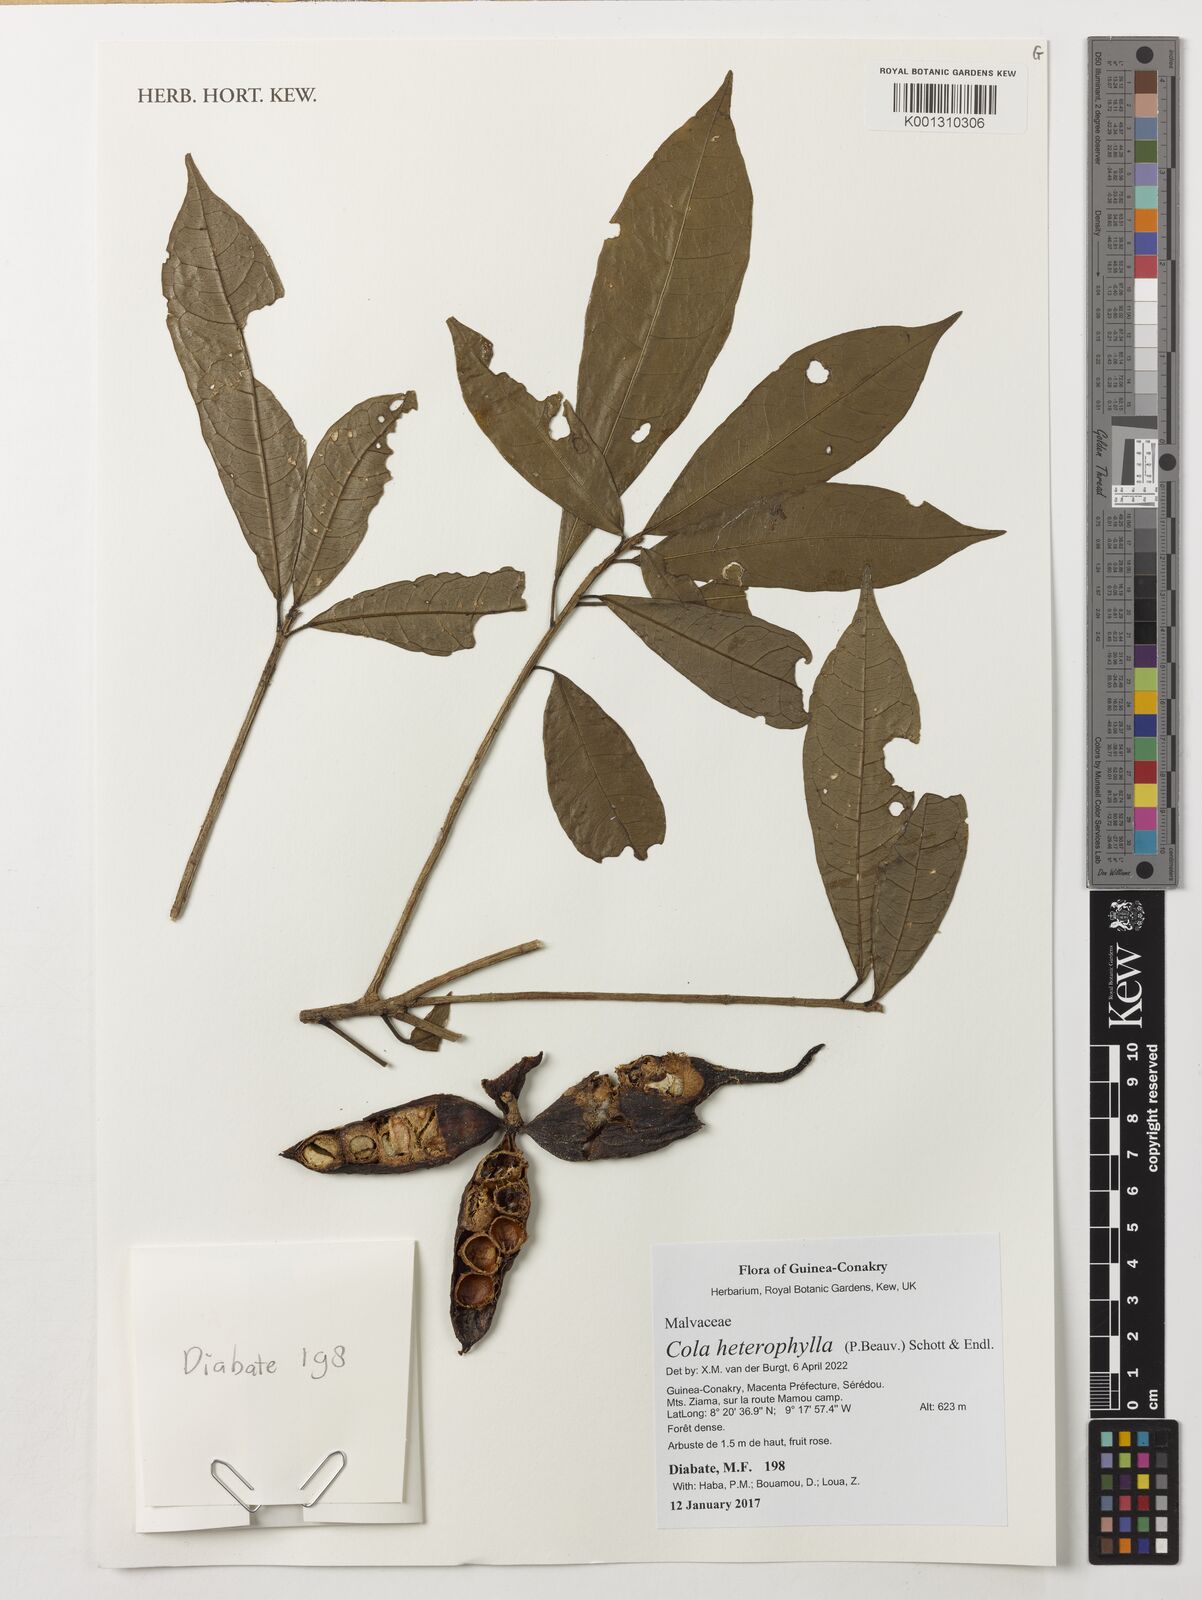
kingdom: Plantae
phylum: Tracheophyta
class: Magnoliopsida
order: Malvales
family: Malvaceae
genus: Cola
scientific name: Cola heterophylla
